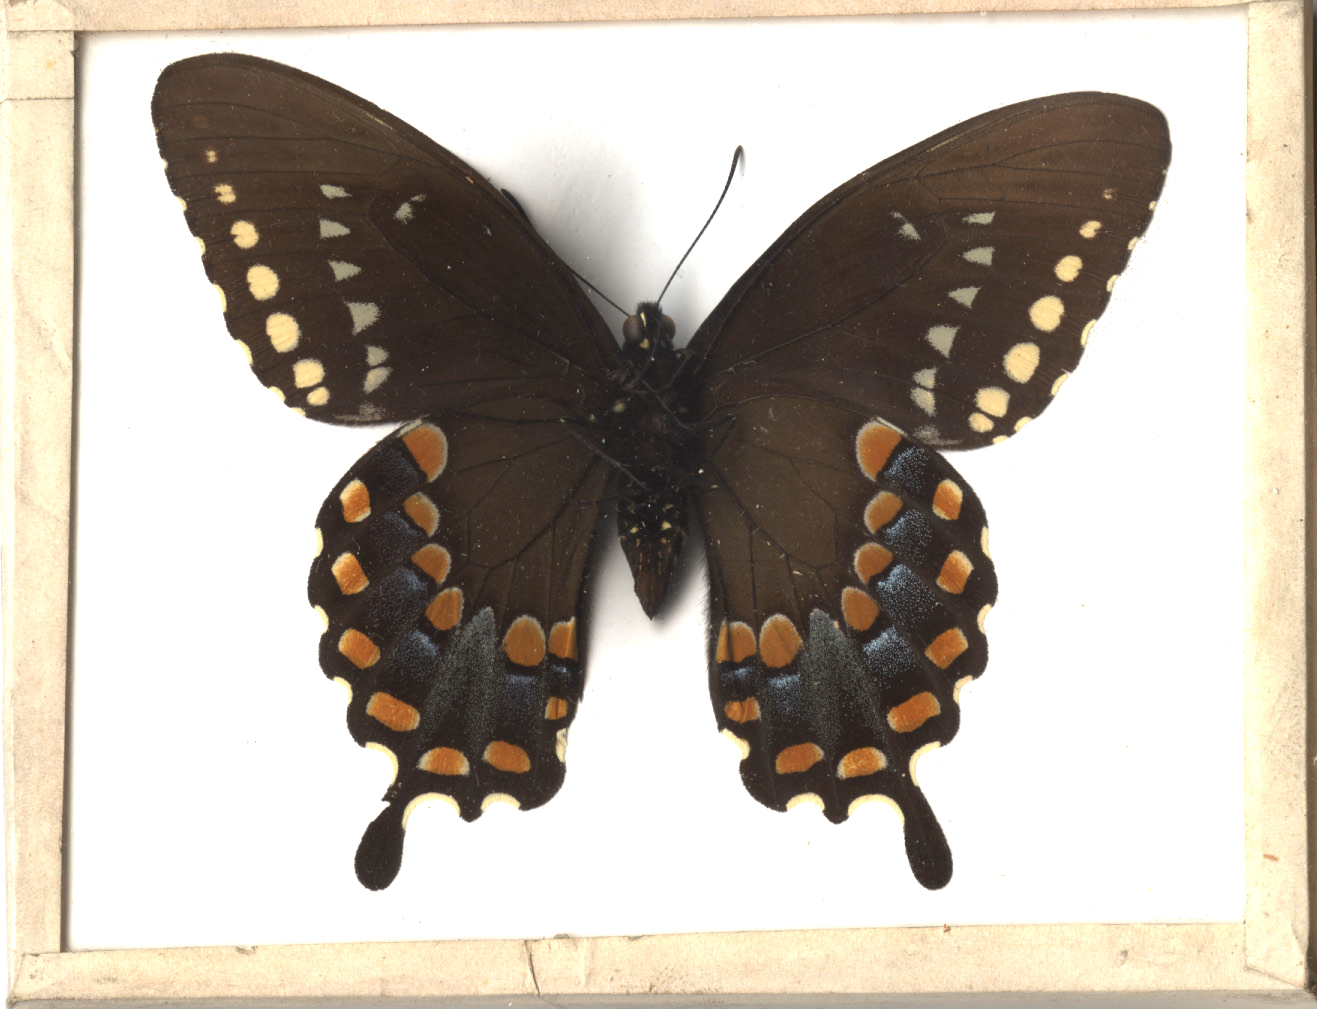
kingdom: Animalia
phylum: Arthropoda
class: Insecta
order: Lepidoptera
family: Papilionidae
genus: Papilio
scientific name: Papilio troilus
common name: Spicebush Swallowtail
